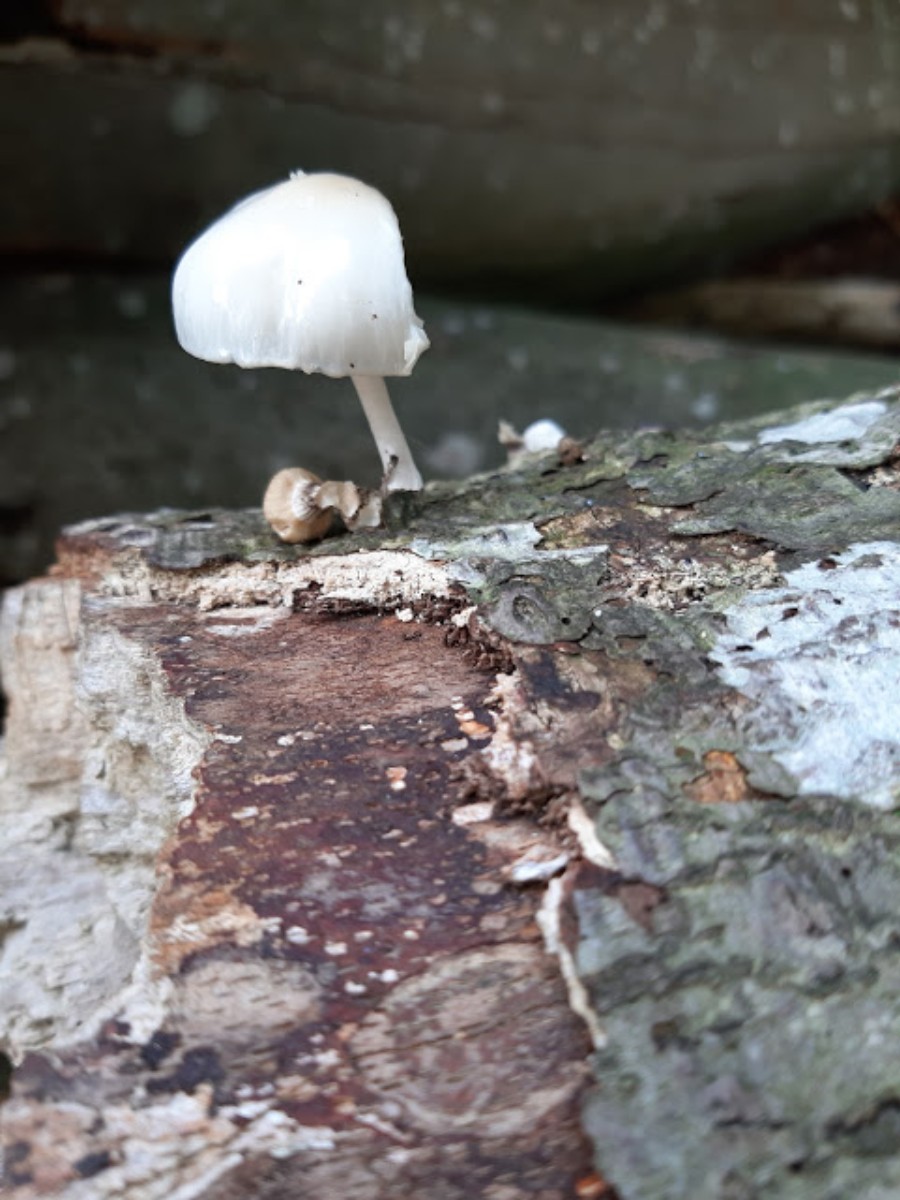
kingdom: Fungi
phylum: Basidiomycota
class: Agaricomycetes
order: Agaricales
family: Physalacriaceae
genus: Mucidula
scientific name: Mucidula mucida
